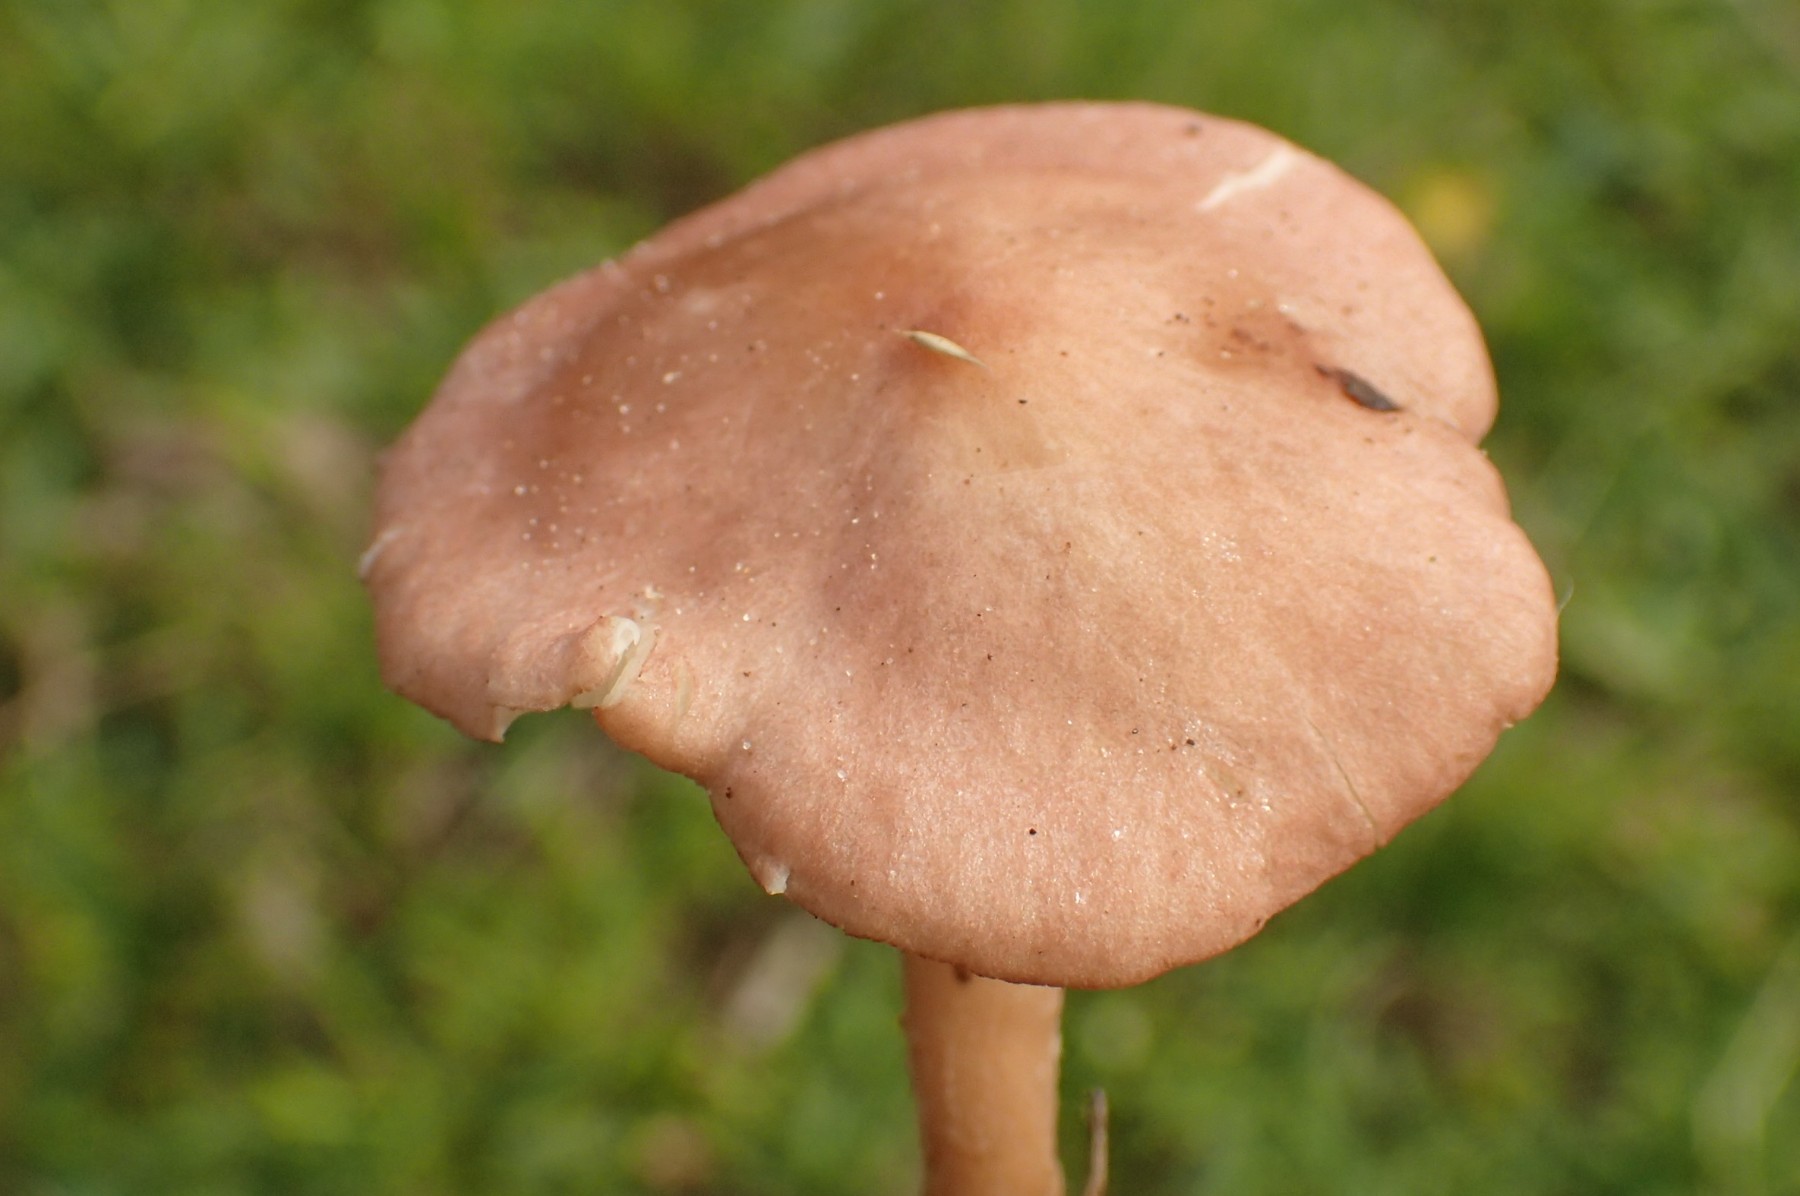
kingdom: Fungi
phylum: Basidiomycota
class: Agaricomycetes
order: Agaricales
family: Lyophyllaceae
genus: Calocybe
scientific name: Calocybe carnea
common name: rosa fagerhat
